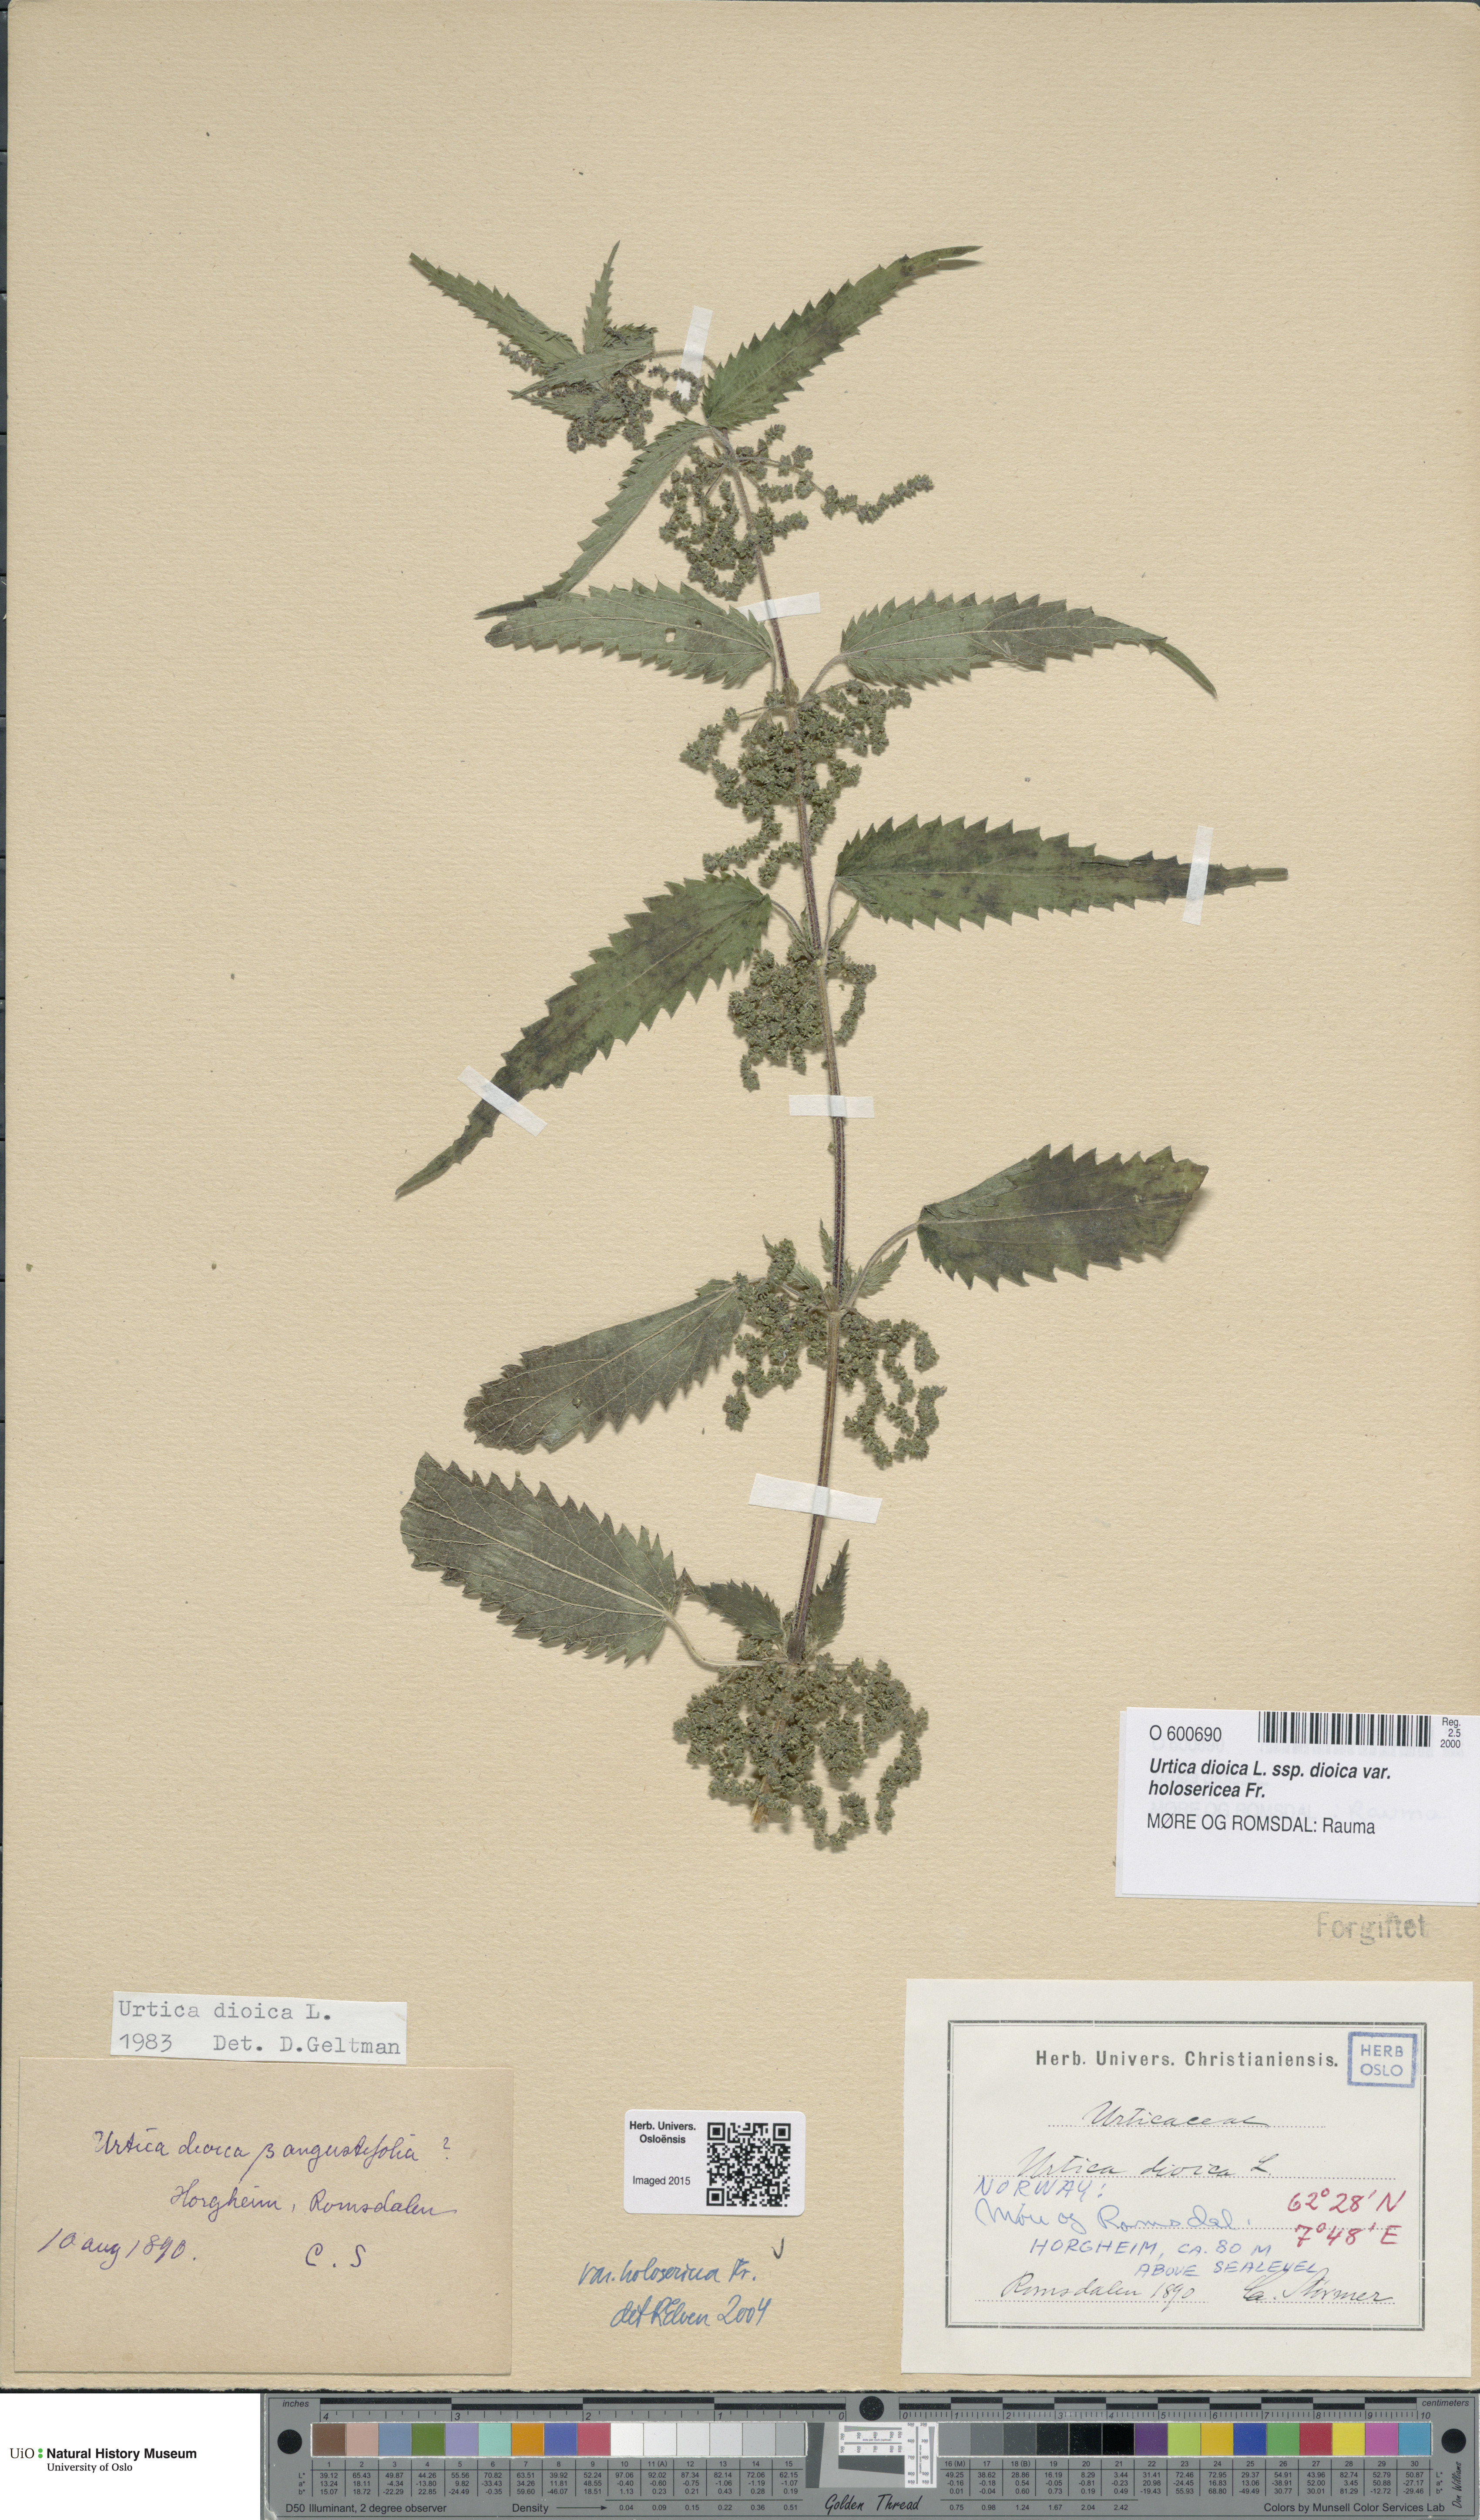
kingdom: Plantae
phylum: Tracheophyta
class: Magnoliopsida
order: Rosales
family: Urticaceae
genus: Urtica
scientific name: Urtica dioica
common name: Common nettle
